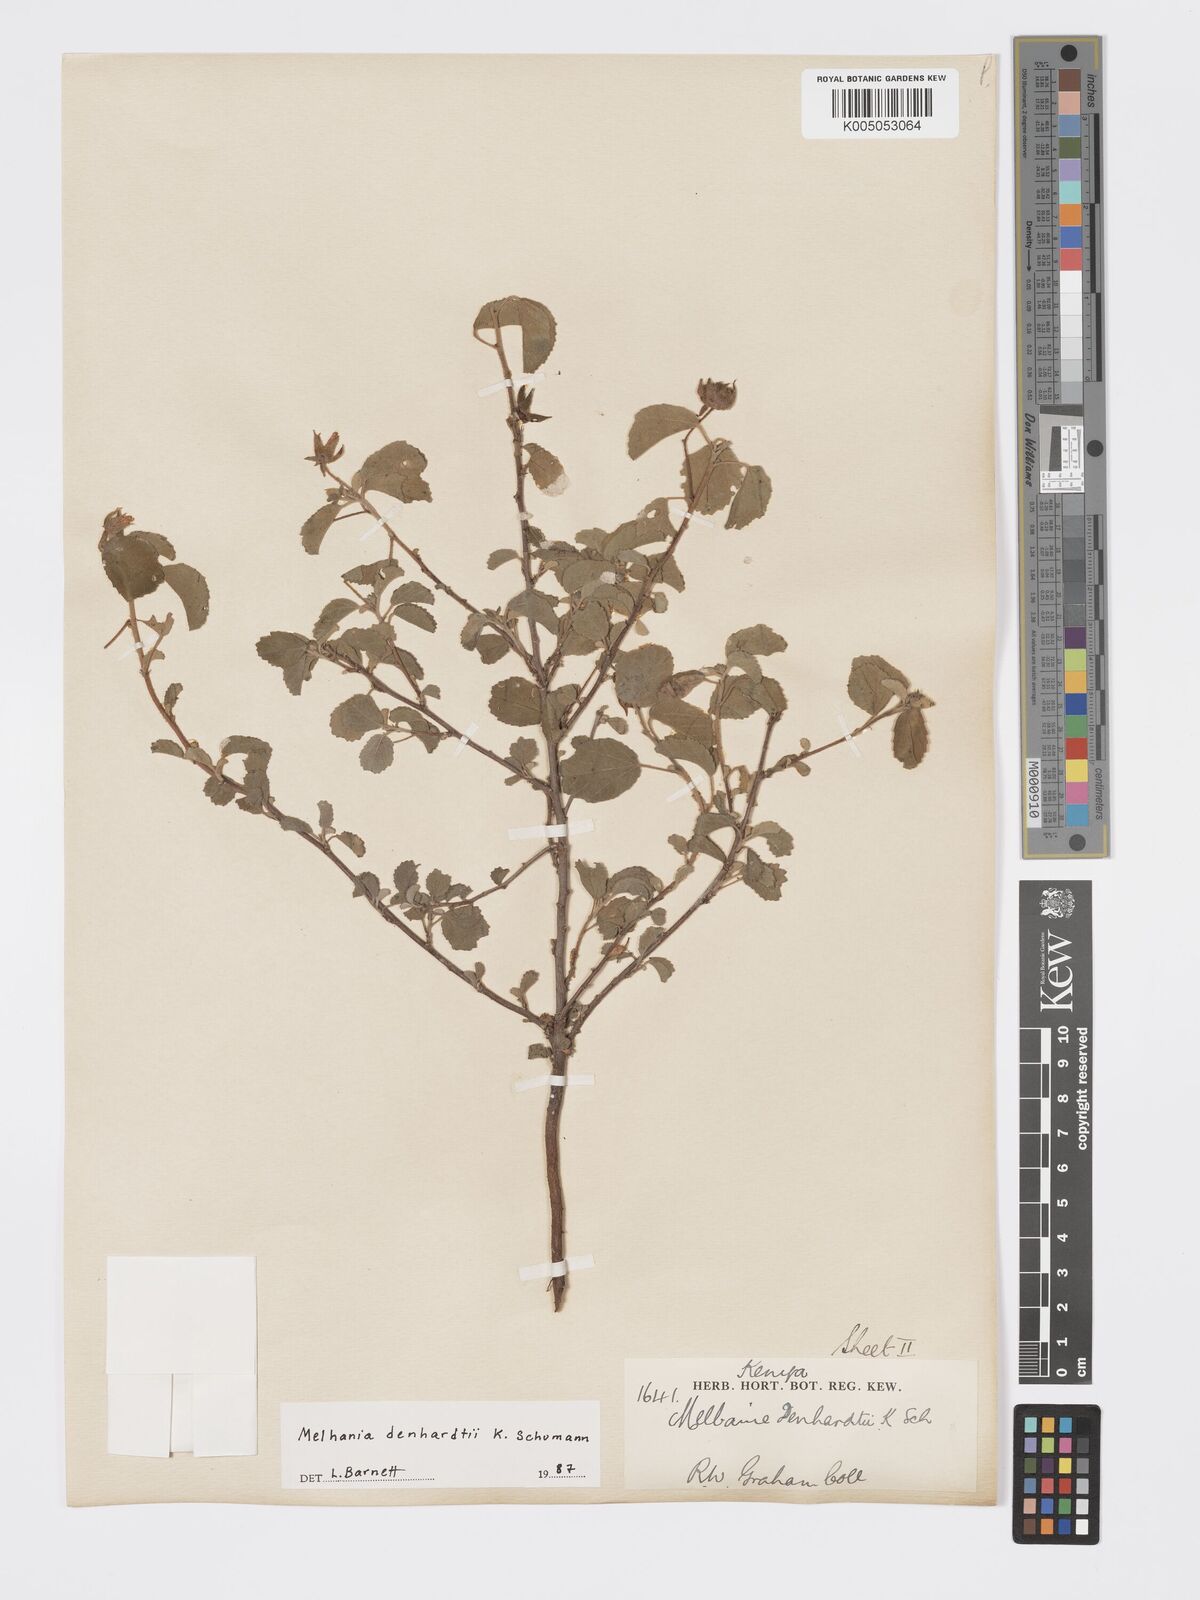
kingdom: Plantae
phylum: Tracheophyta
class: Magnoliopsida
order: Malvales
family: Malvaceae
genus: Melhania
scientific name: Melhania dehnhardtii
